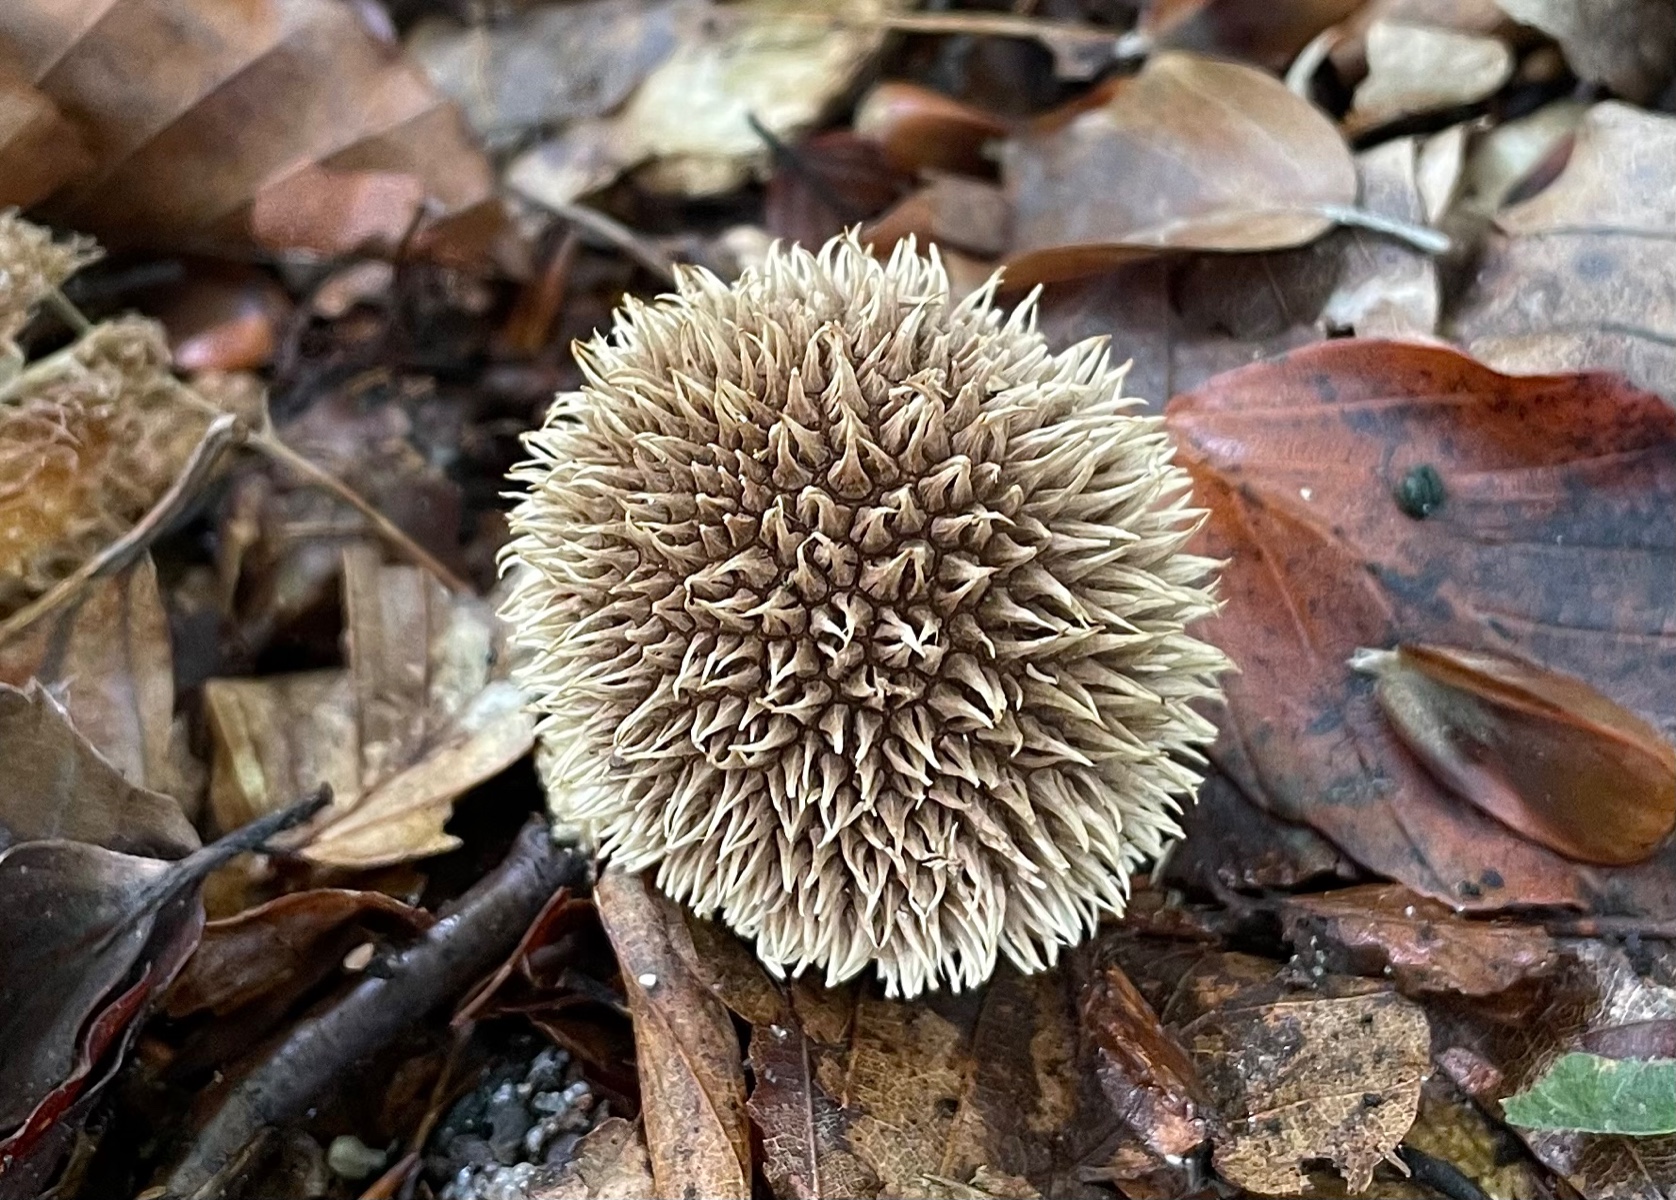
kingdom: Fungi
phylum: Basidiomycota
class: Agaricomycetes
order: Agaricales
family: Lycoperdaceae
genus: Lycoperdon
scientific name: Lycoperdon echinatum
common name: pindsvine-støvbold
